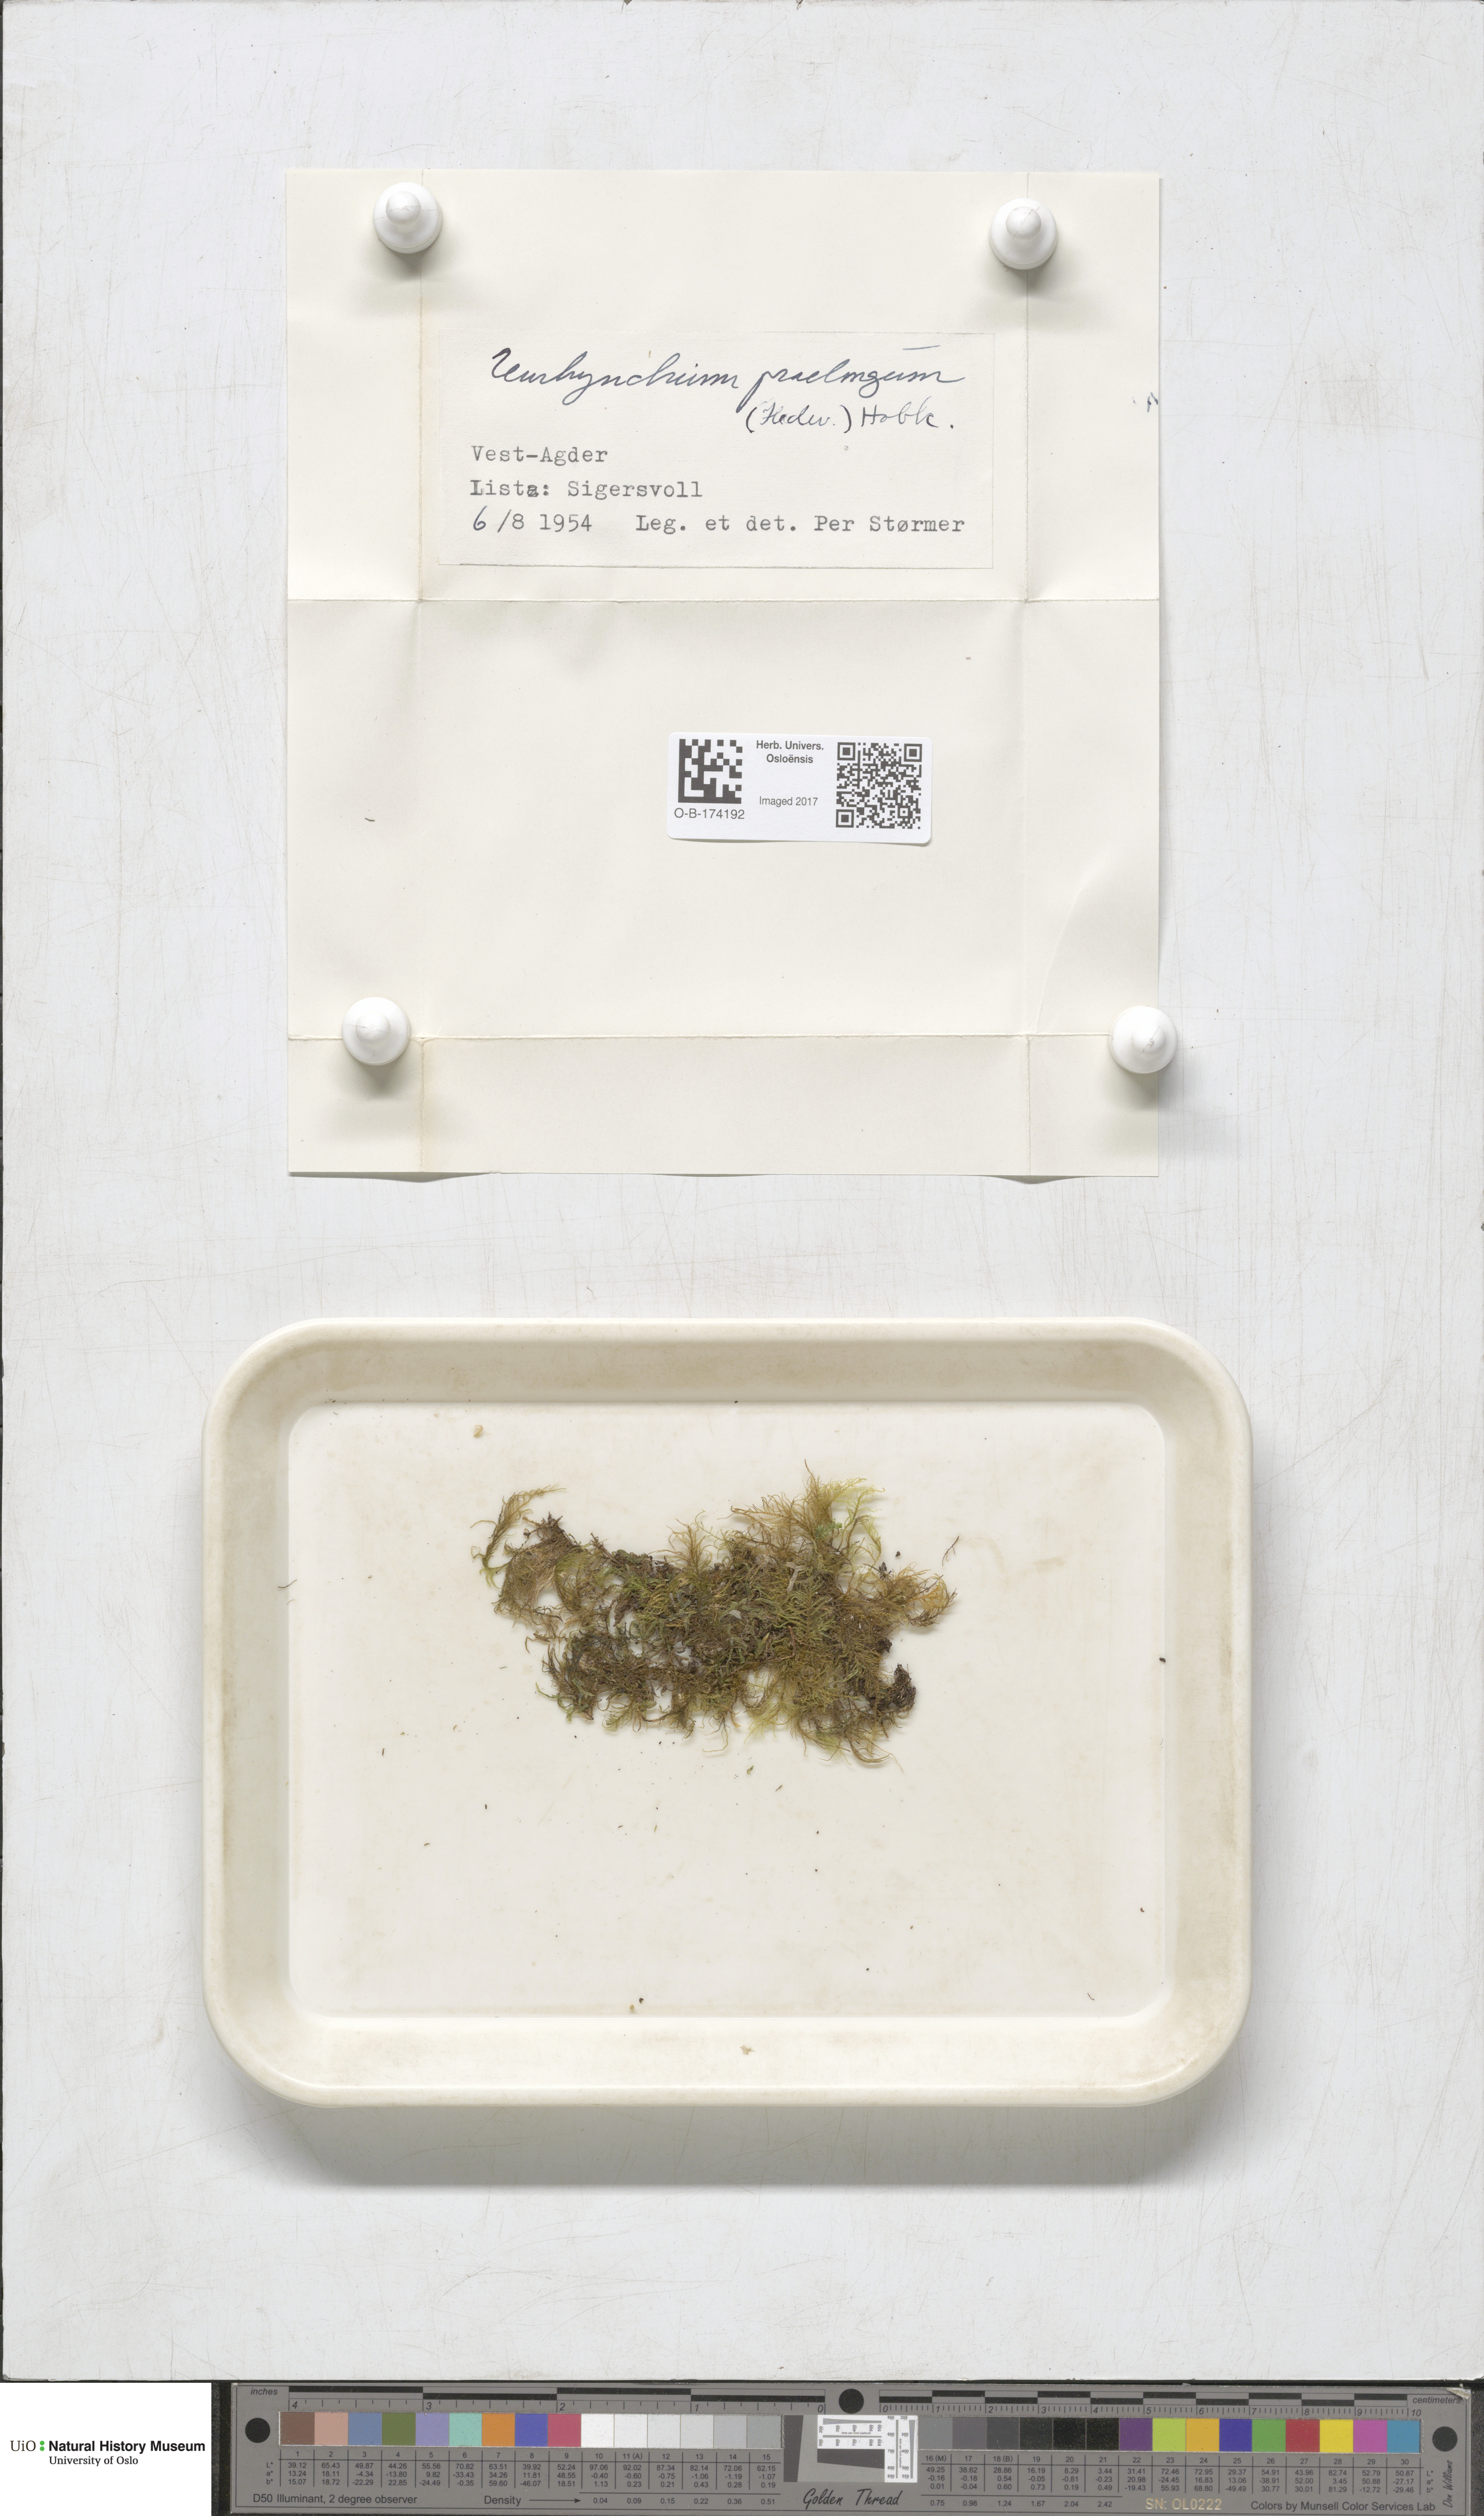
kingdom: Plantae
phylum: Bryophyta
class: Bryopsida
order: Hypnales
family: Brachytheciaceae
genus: Kindbergia
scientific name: Kindbergia praelonga
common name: Slender beaked moss
